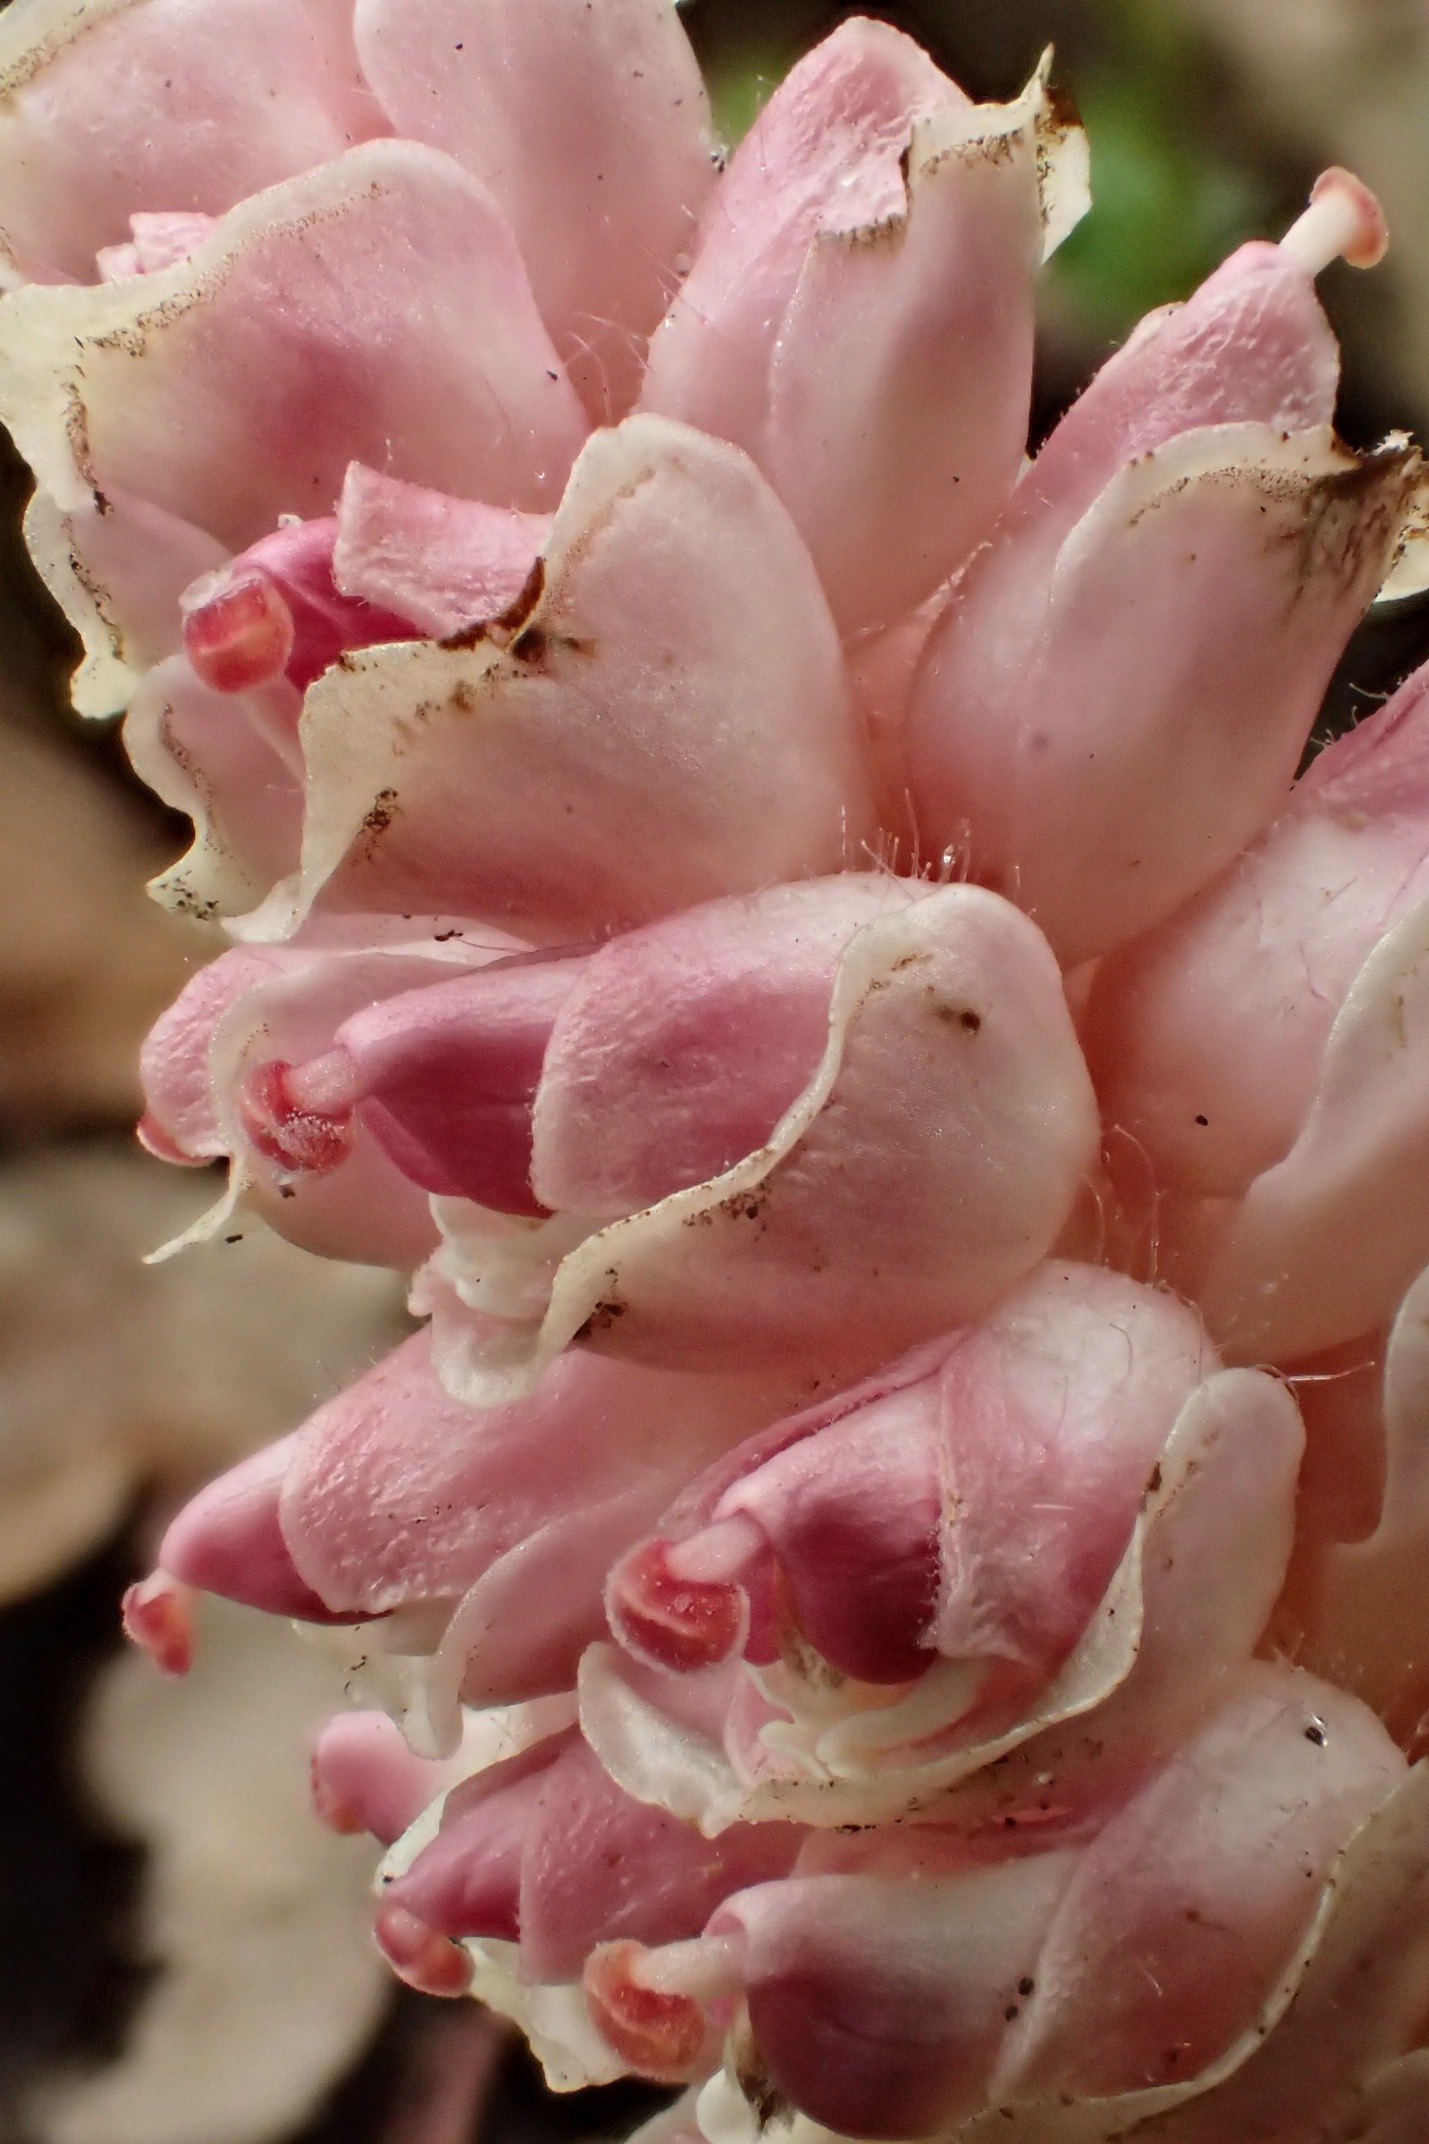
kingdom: Plantae
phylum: Tracheophyta
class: Magnoliopsida
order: Lamiales
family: Orobanchaceae
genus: Lathraea
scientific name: Lathraea squamaria
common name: Skælrod
